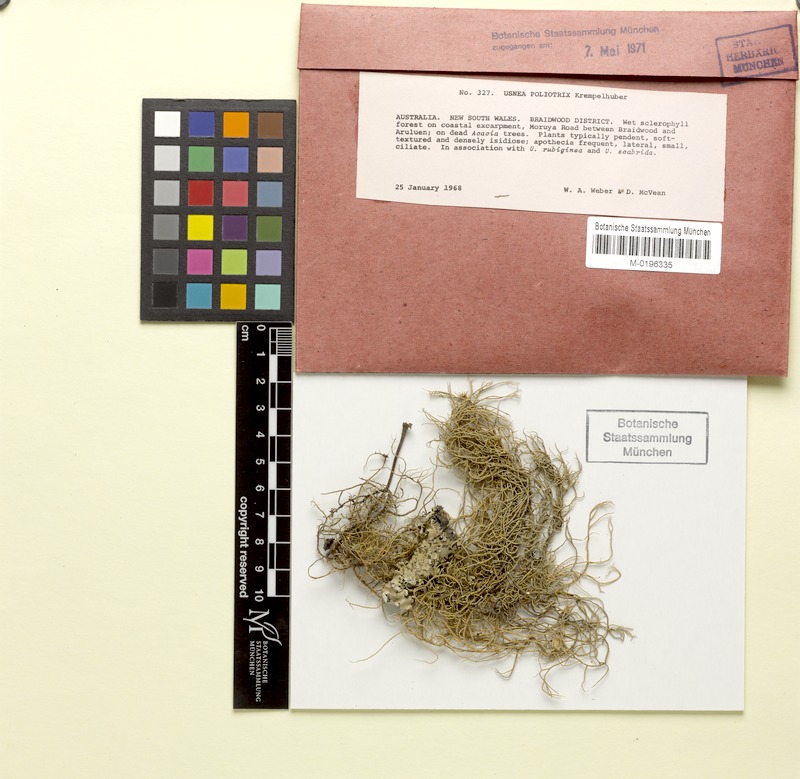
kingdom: Fungi
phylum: Ascomycota
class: Lecanoromycetes
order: Lecanorales
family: Parmeliaceae
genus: Usnea
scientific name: Usnea poliotrix
